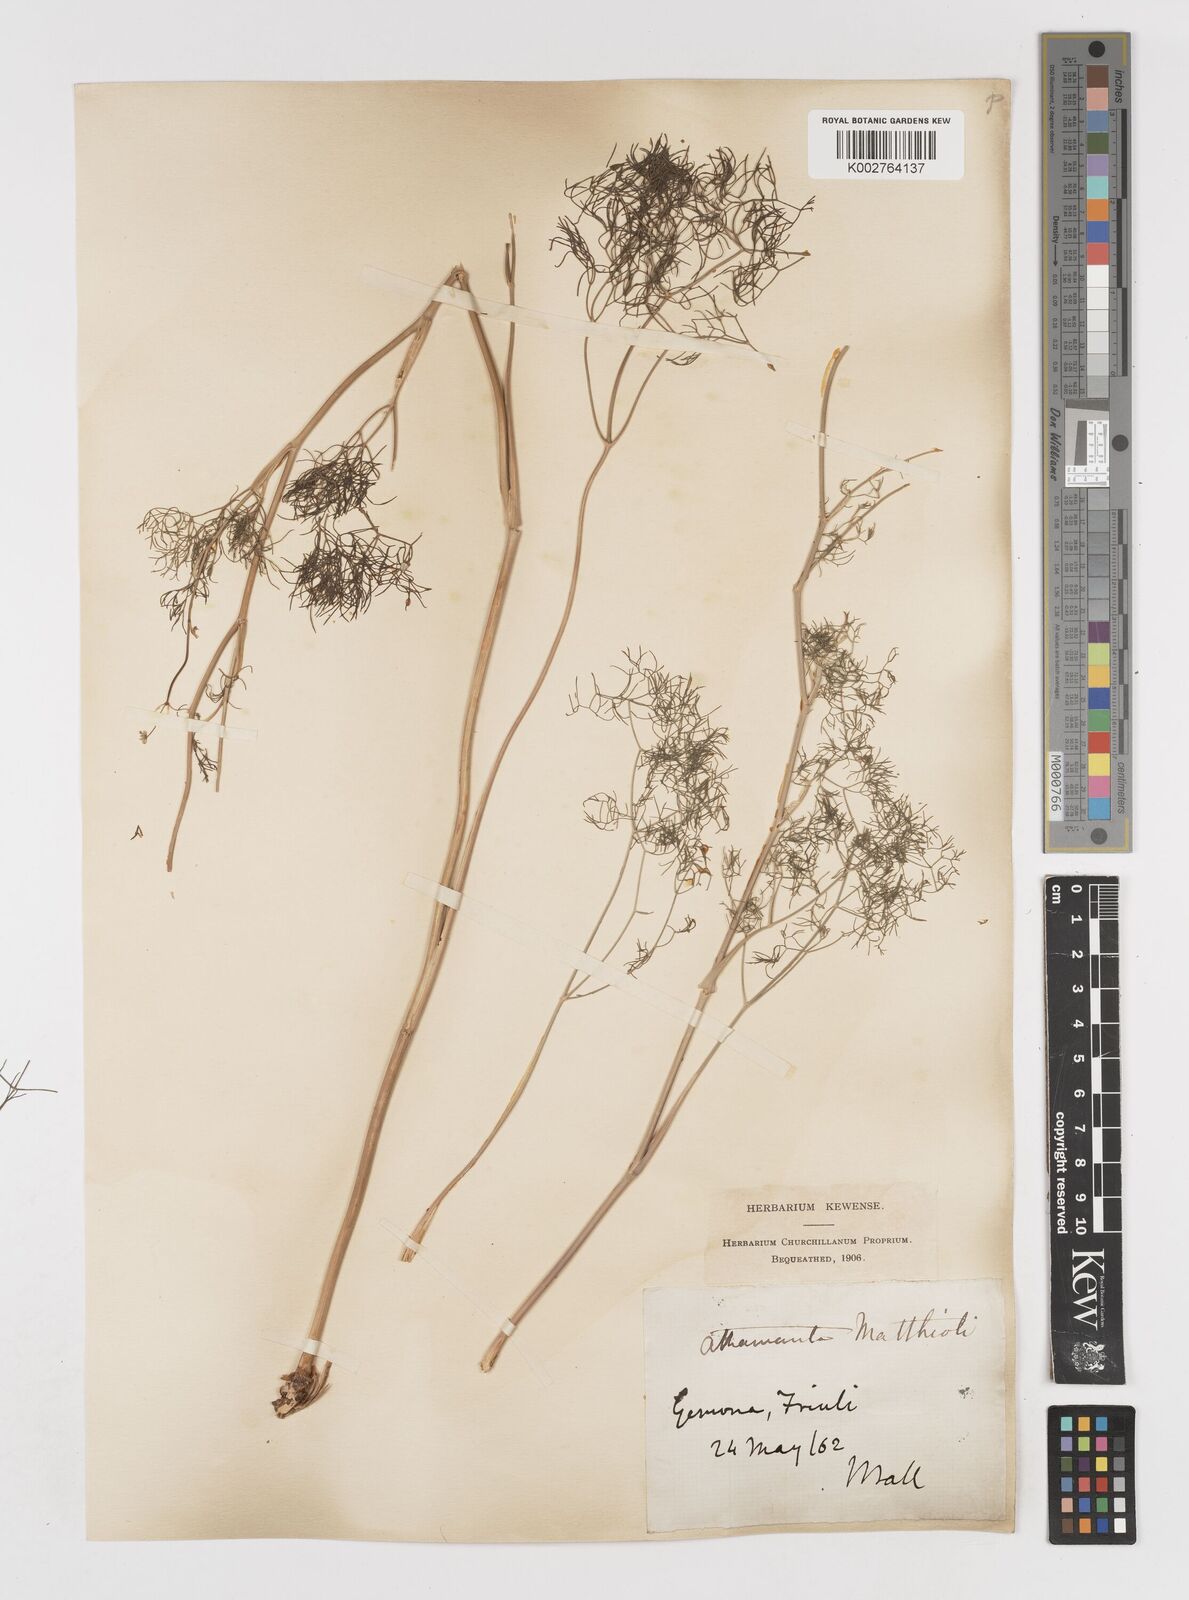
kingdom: Plantae
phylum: Tracheophyta
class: Magnoliopsida
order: Apiales
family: Apiaceae
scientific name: Apiaceae
